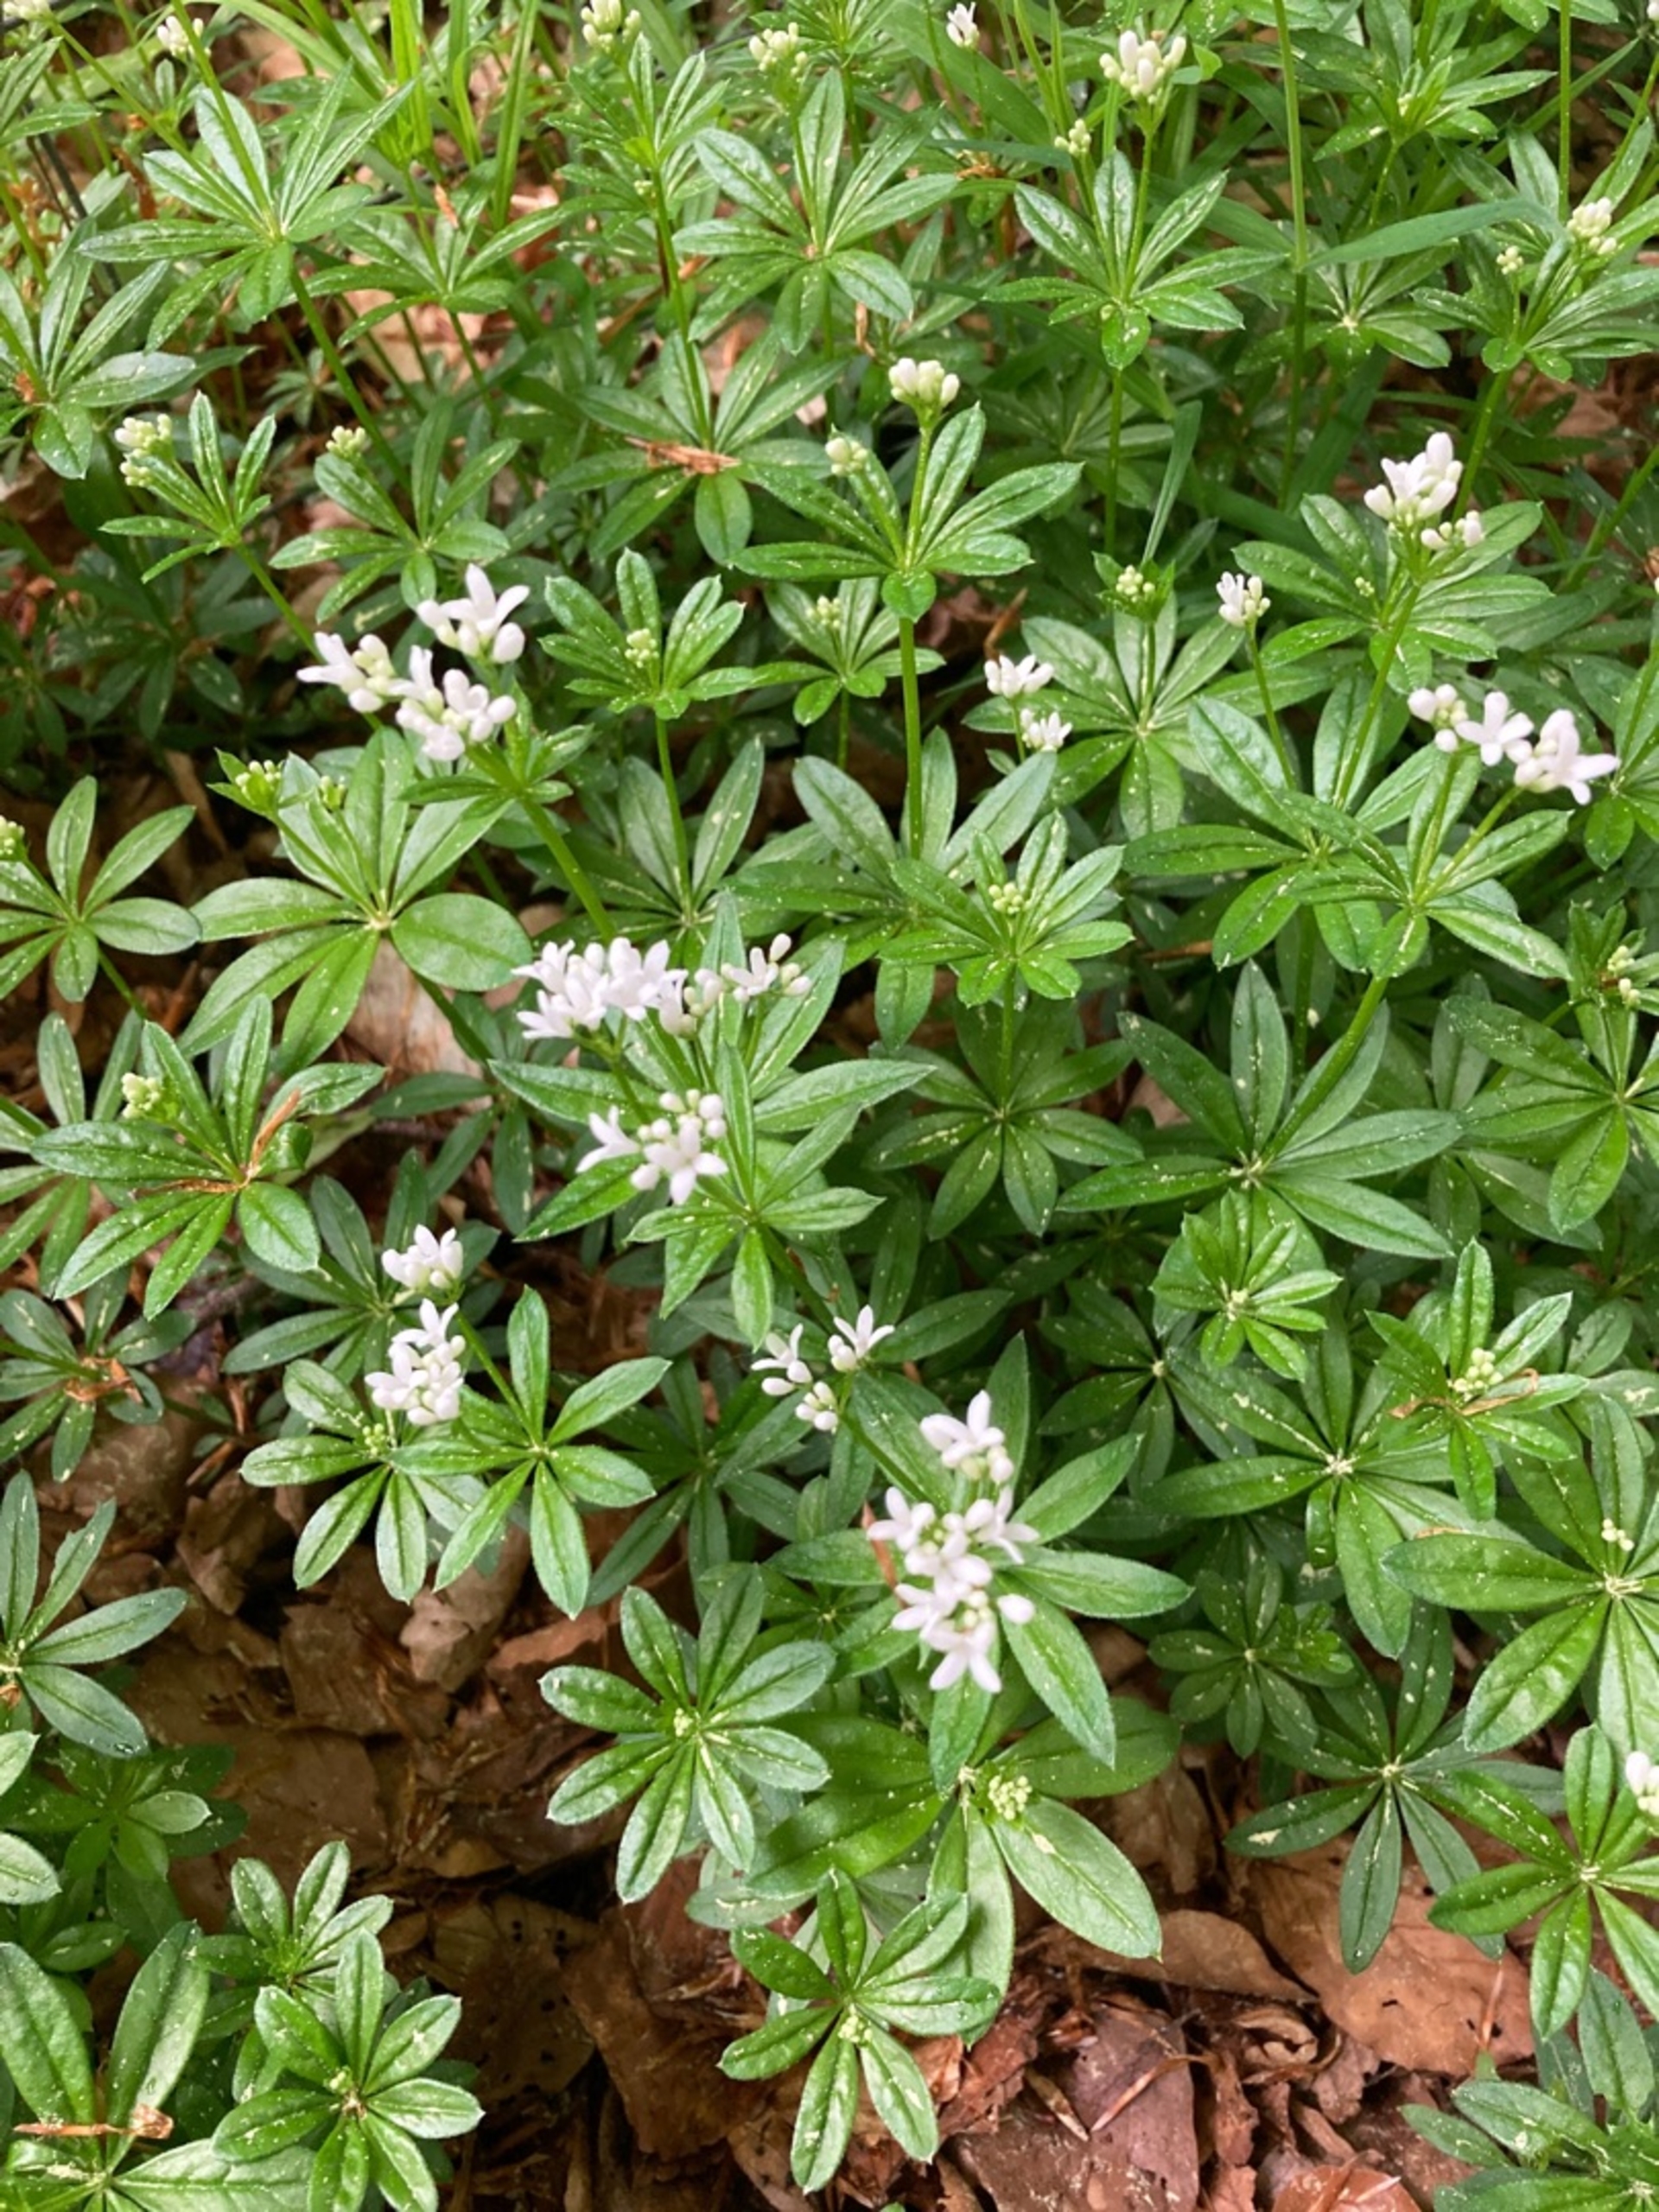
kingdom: Plantae
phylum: Tracheophyta
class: Magnoliopsida
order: Gentianales
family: Rubiaceae
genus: Galium
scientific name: Galium odoratum
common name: Skovmærke
